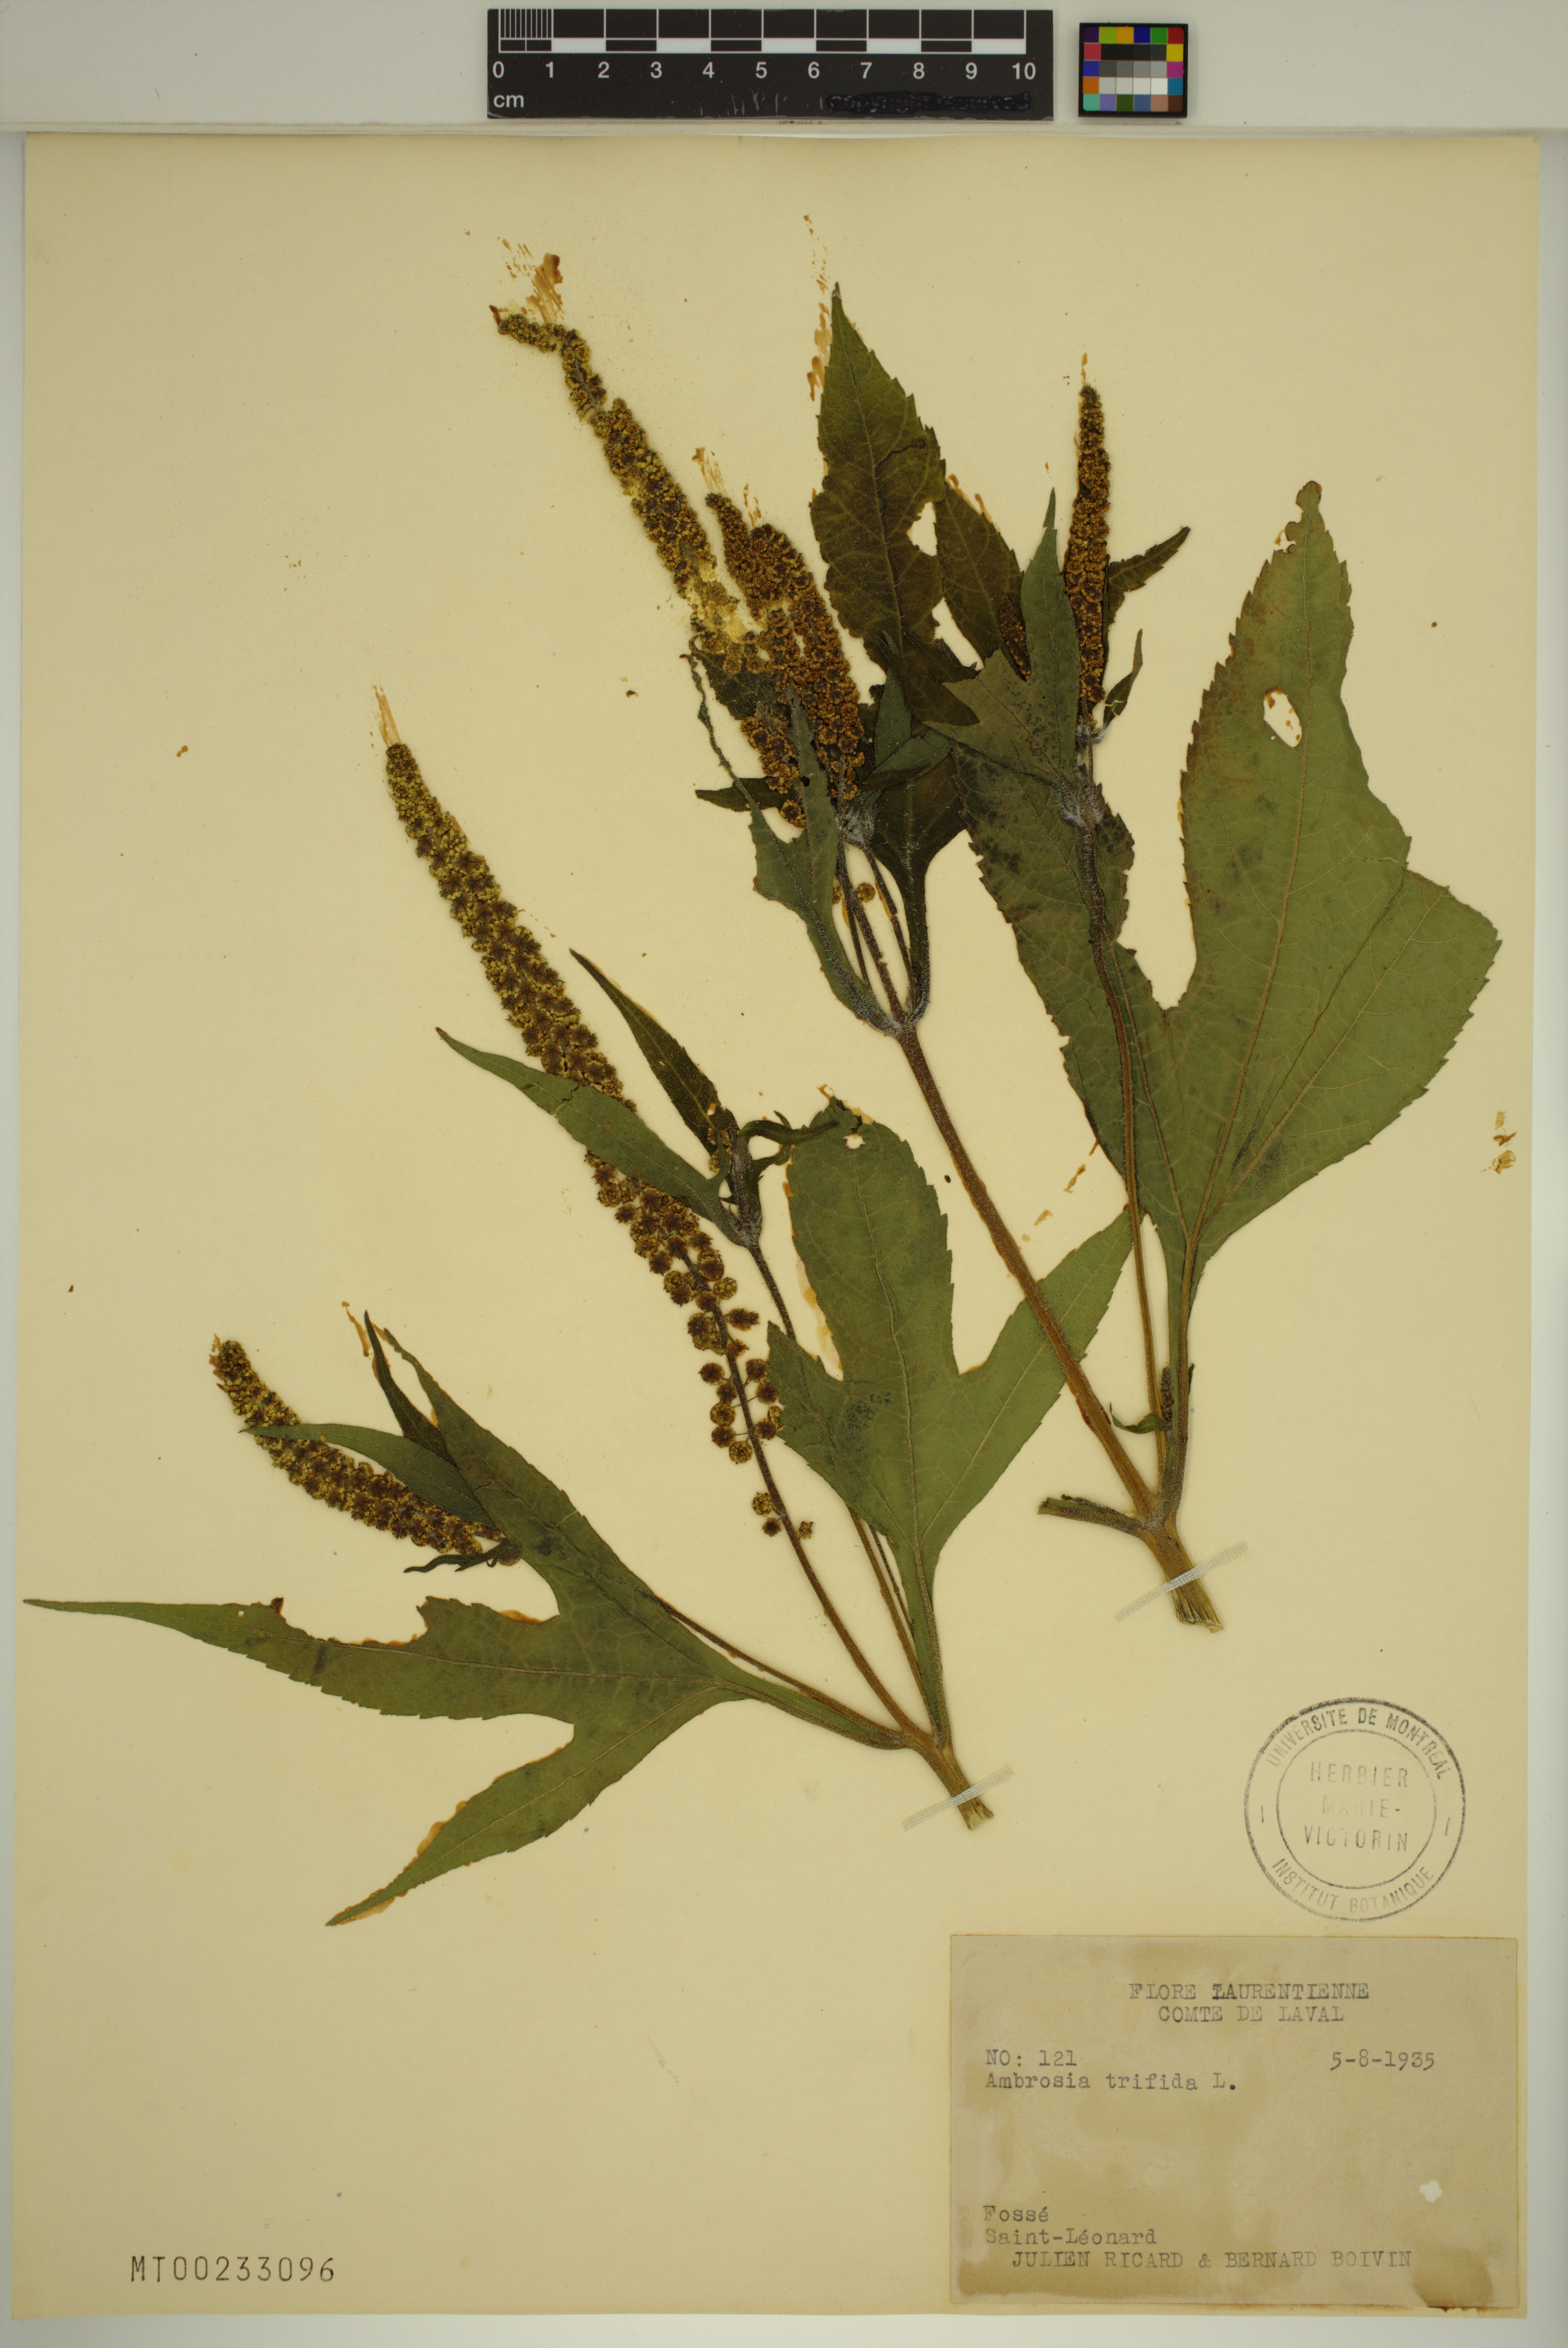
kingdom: Plantae
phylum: Tracheophyta
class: Magnoliopsida
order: Asterales
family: Asteraceae
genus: Ambrosia
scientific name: Ambrosia trifida
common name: Giant ragweed
